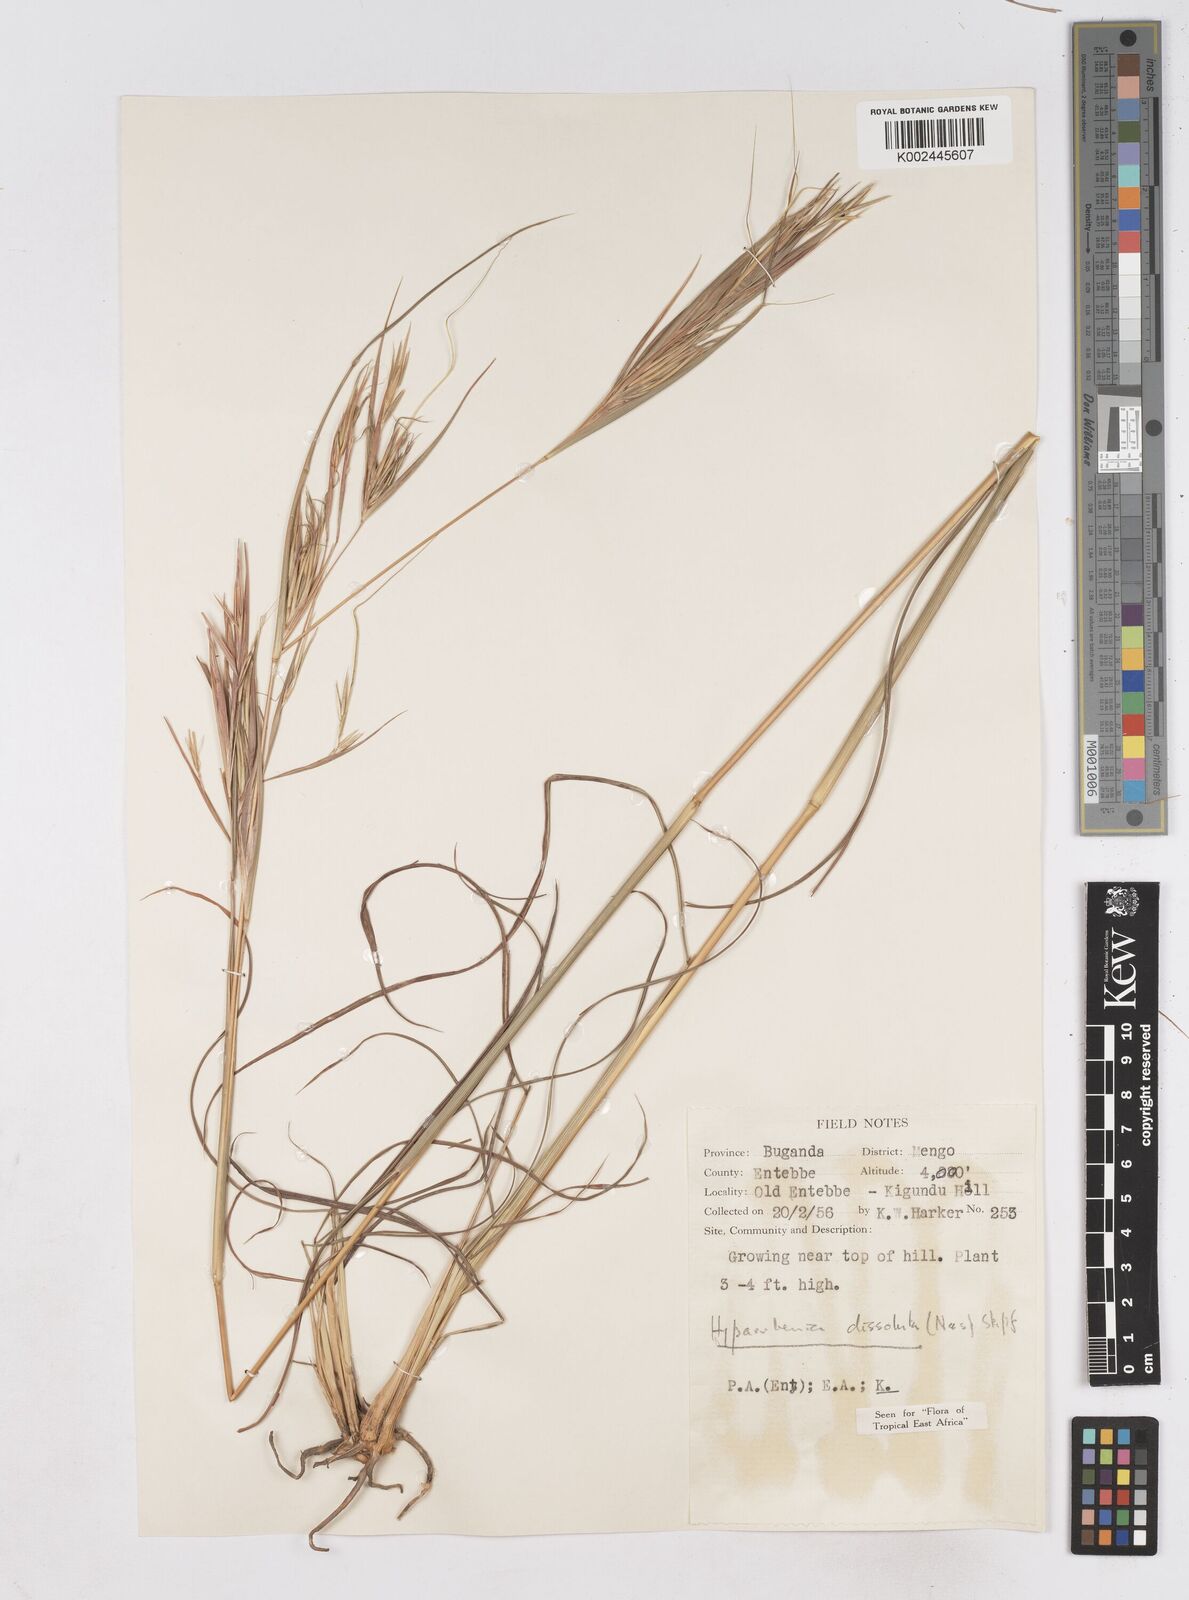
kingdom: Plantae
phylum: Tracheophyta
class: Liliopsida
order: Poales
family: Poaceae
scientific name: Poaceae
